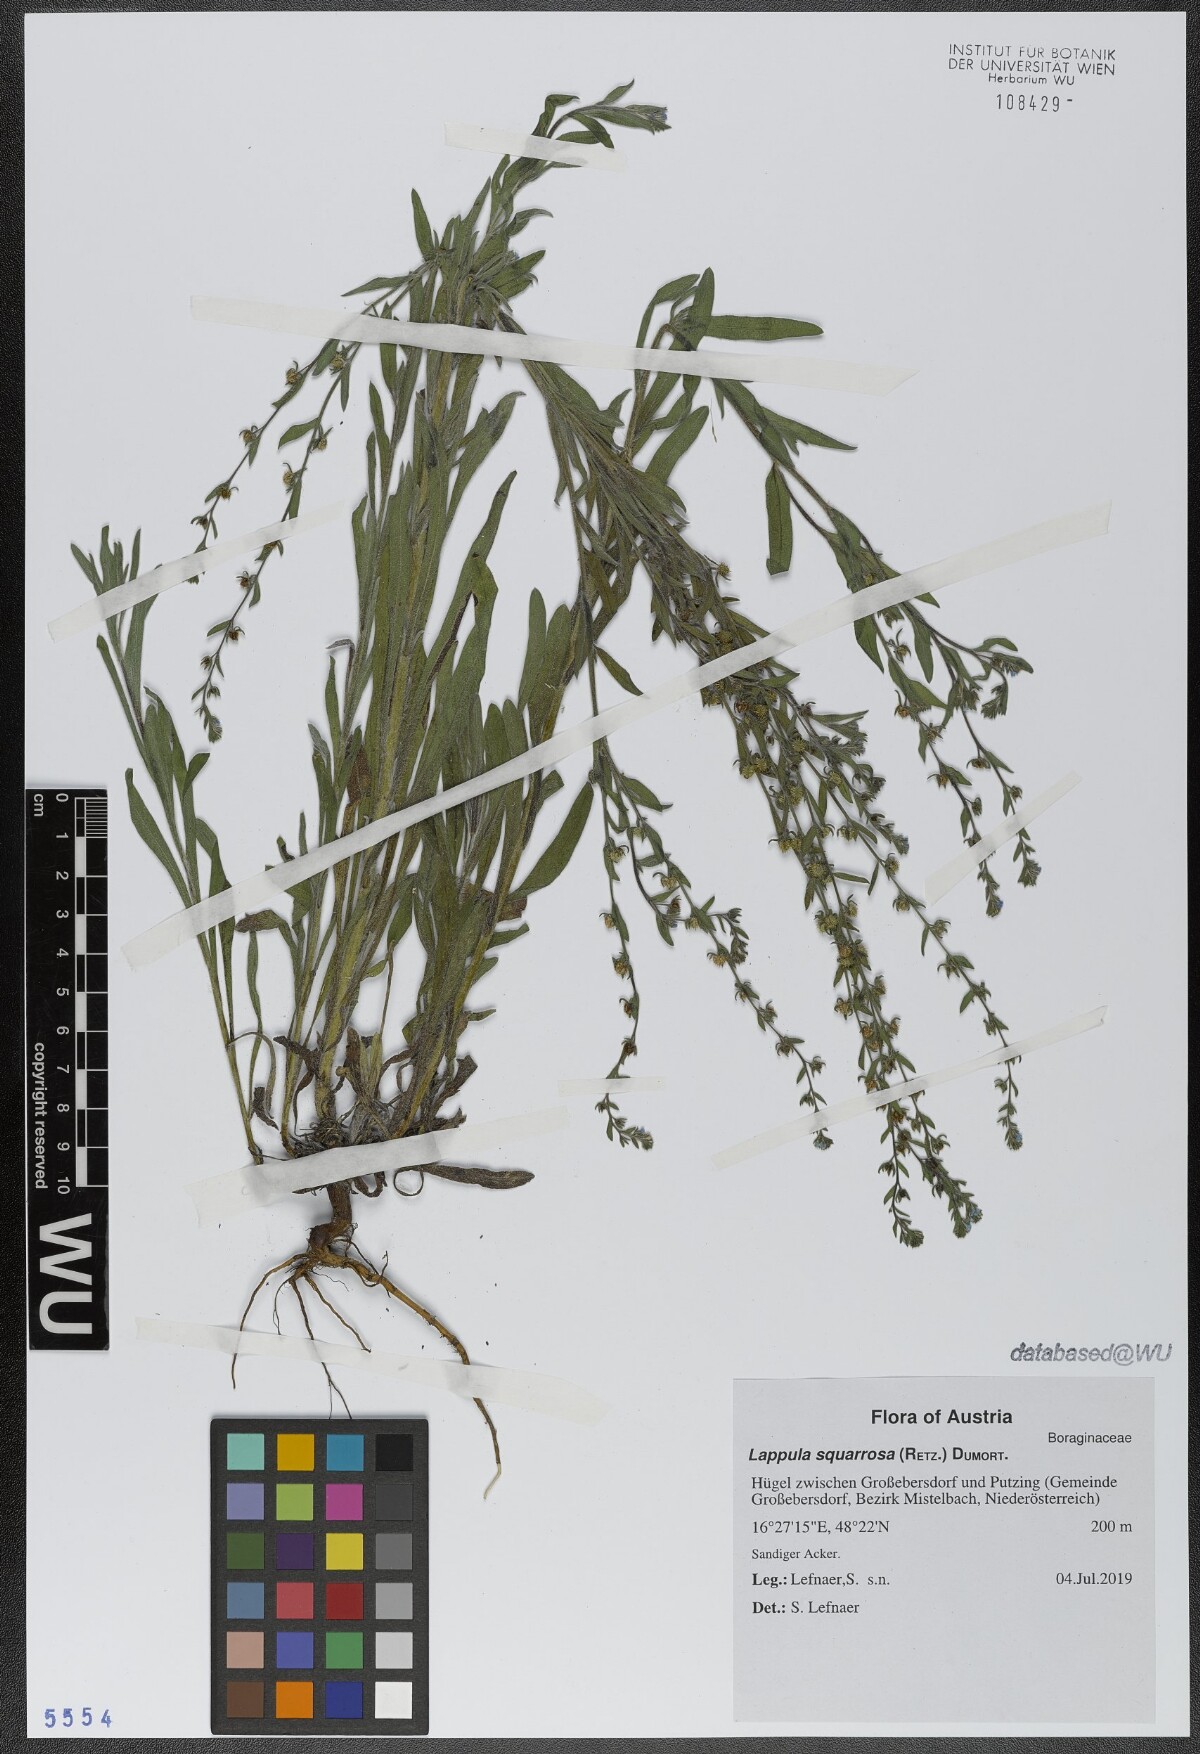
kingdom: Plantae
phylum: Tracheophyta
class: Magnoliopsida
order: Boraginales
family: Boraginaceae
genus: Lappula
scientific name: Lappula squarrosa
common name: European stickseed
